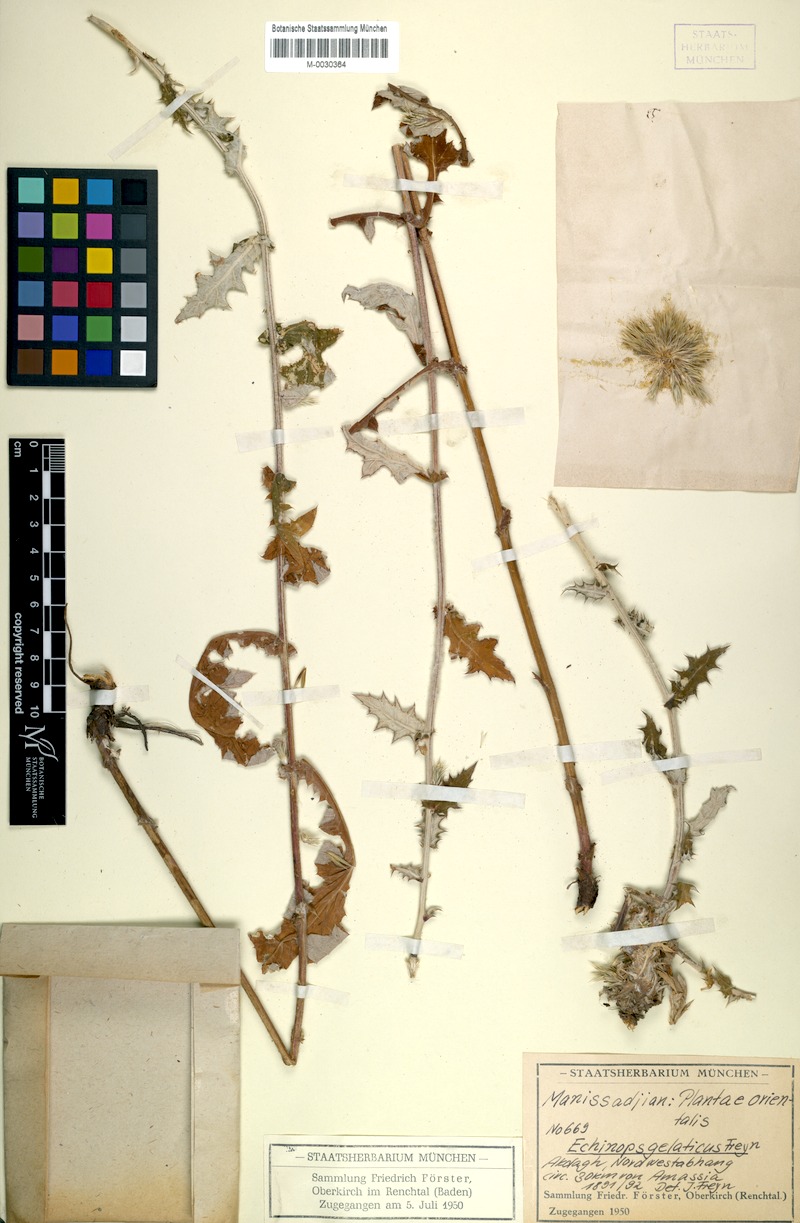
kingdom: Plantae
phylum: Tracheophyta
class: Magnoliopsida
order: Asterales
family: Asteraceae
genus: Echinops
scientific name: Echinops ossicus
